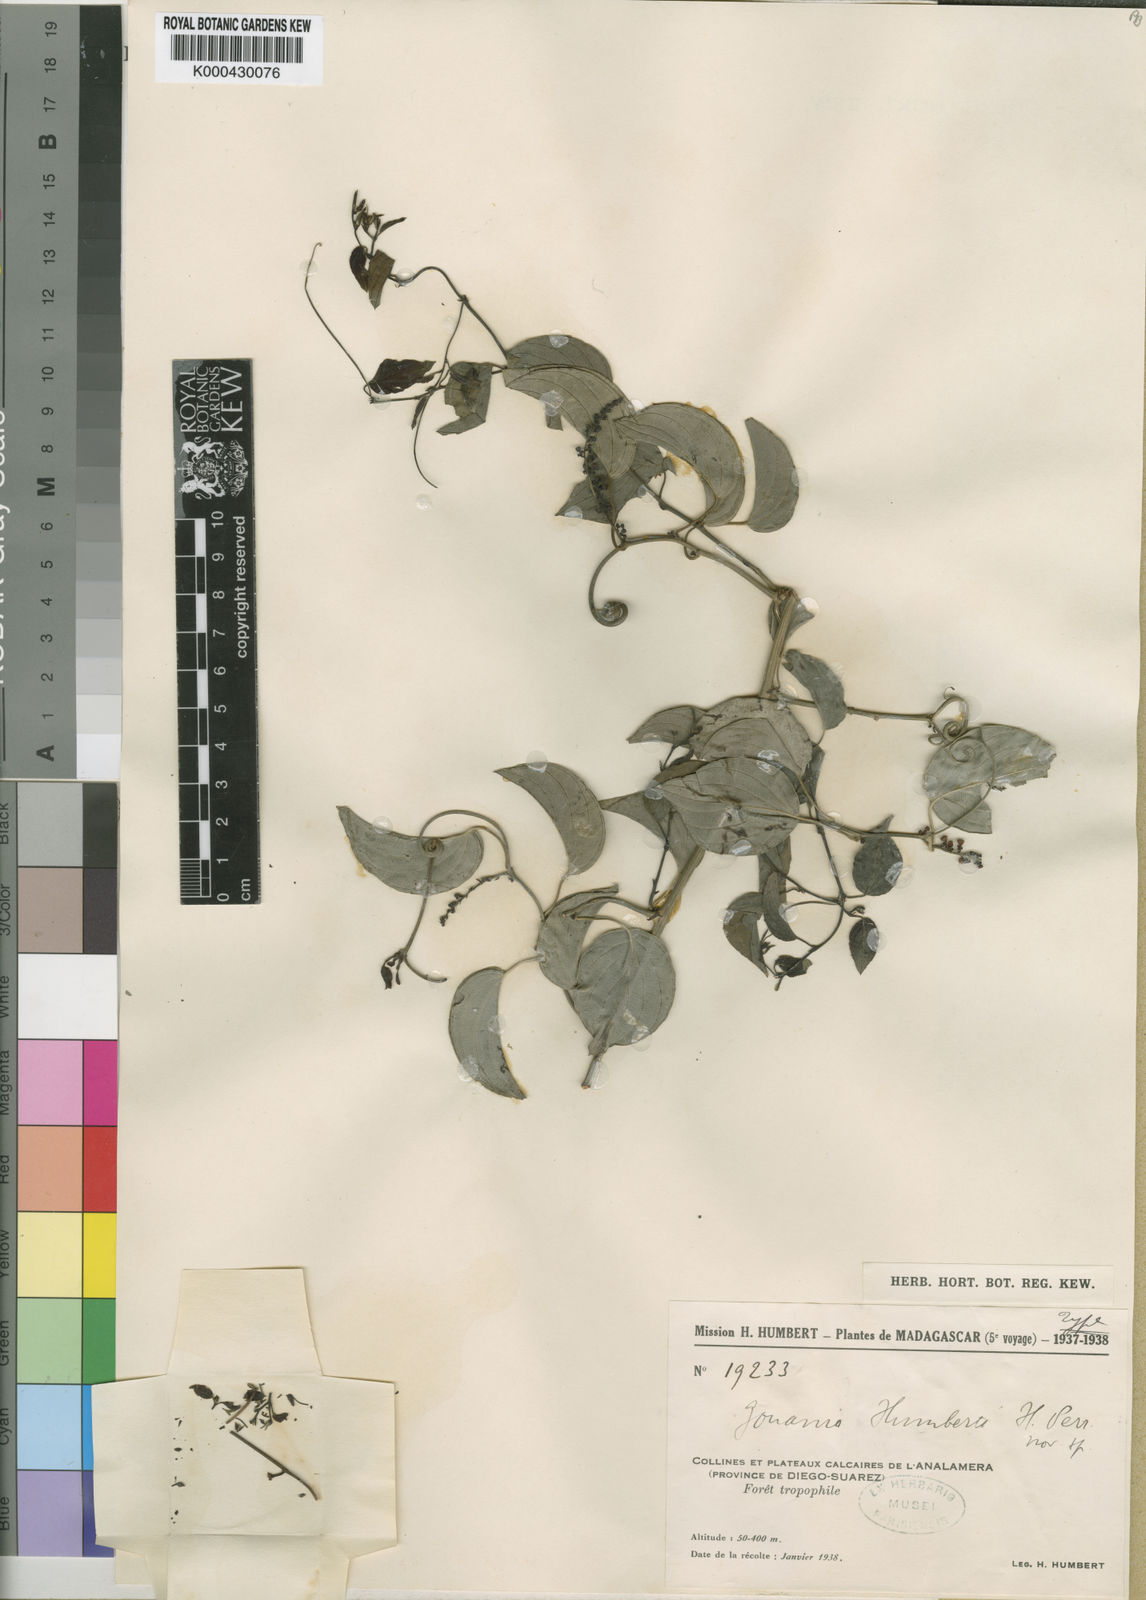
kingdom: Plantae
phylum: Tracheophyta
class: Magnoliopsida
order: Rosales
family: Rhamnaceae
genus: Gouania
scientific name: Gouania humbertii
